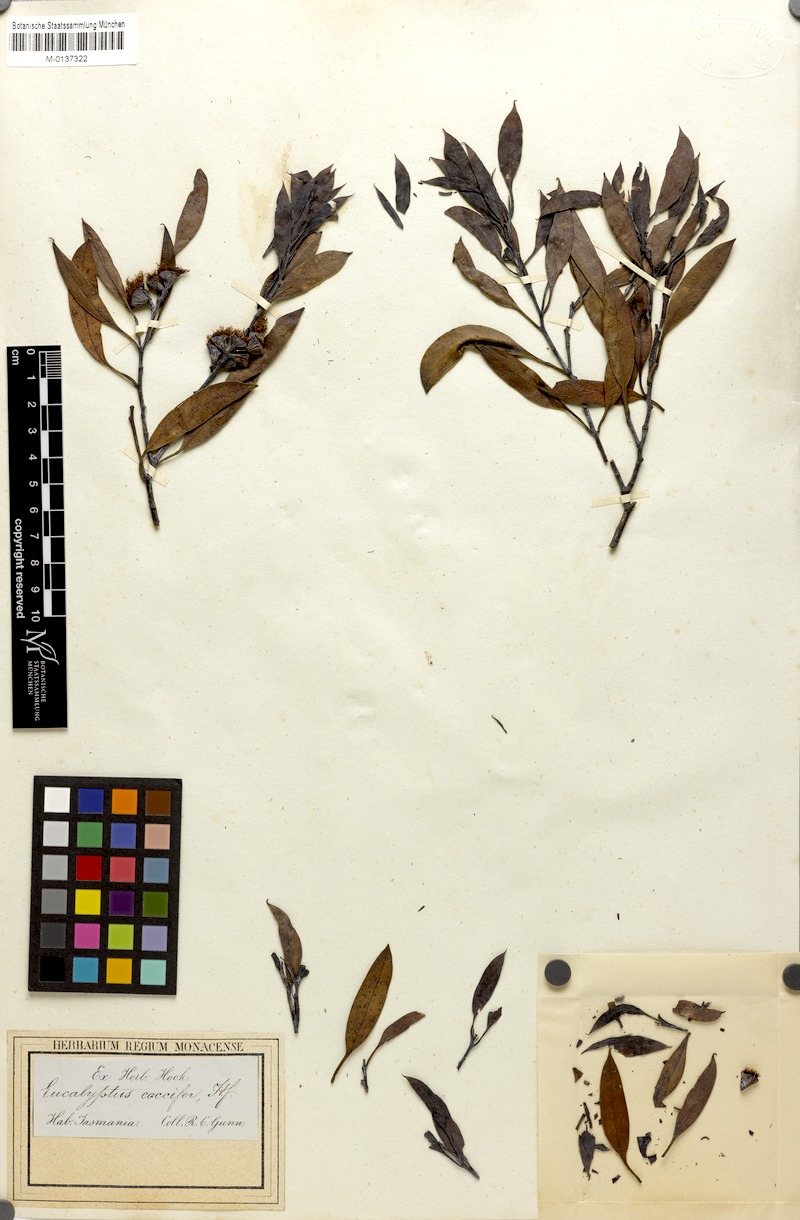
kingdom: Plantae
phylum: Tracheophyta
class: Magnoliopsida
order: Myrtales
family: Myrtaceae
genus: Eucalyptus
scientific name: Eucalyptus coccifera
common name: Tasmanian snow-gum
